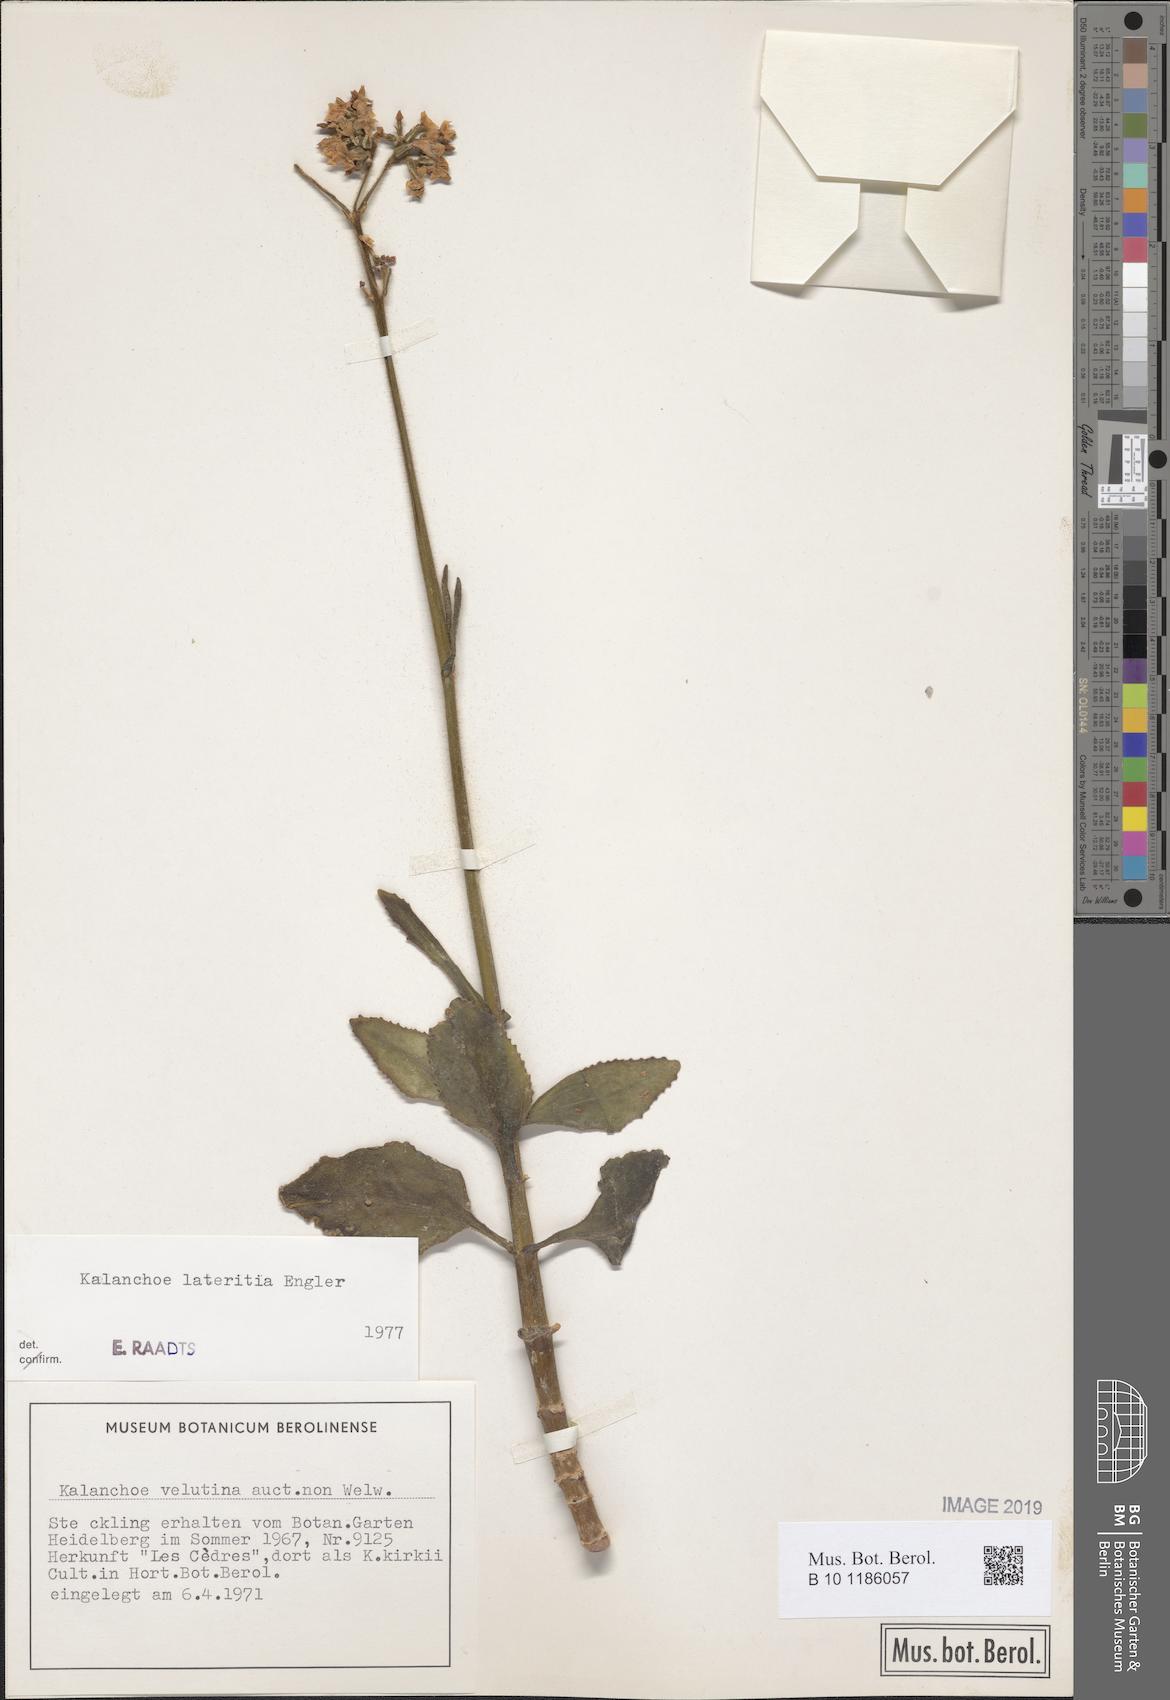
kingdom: Plantae
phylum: Tracheophyta
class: Magnoliopsida
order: Saxifragales
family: Crassulaceae
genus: Kalanchoe
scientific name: Kalanchoe lateritia
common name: Kalanchoe
